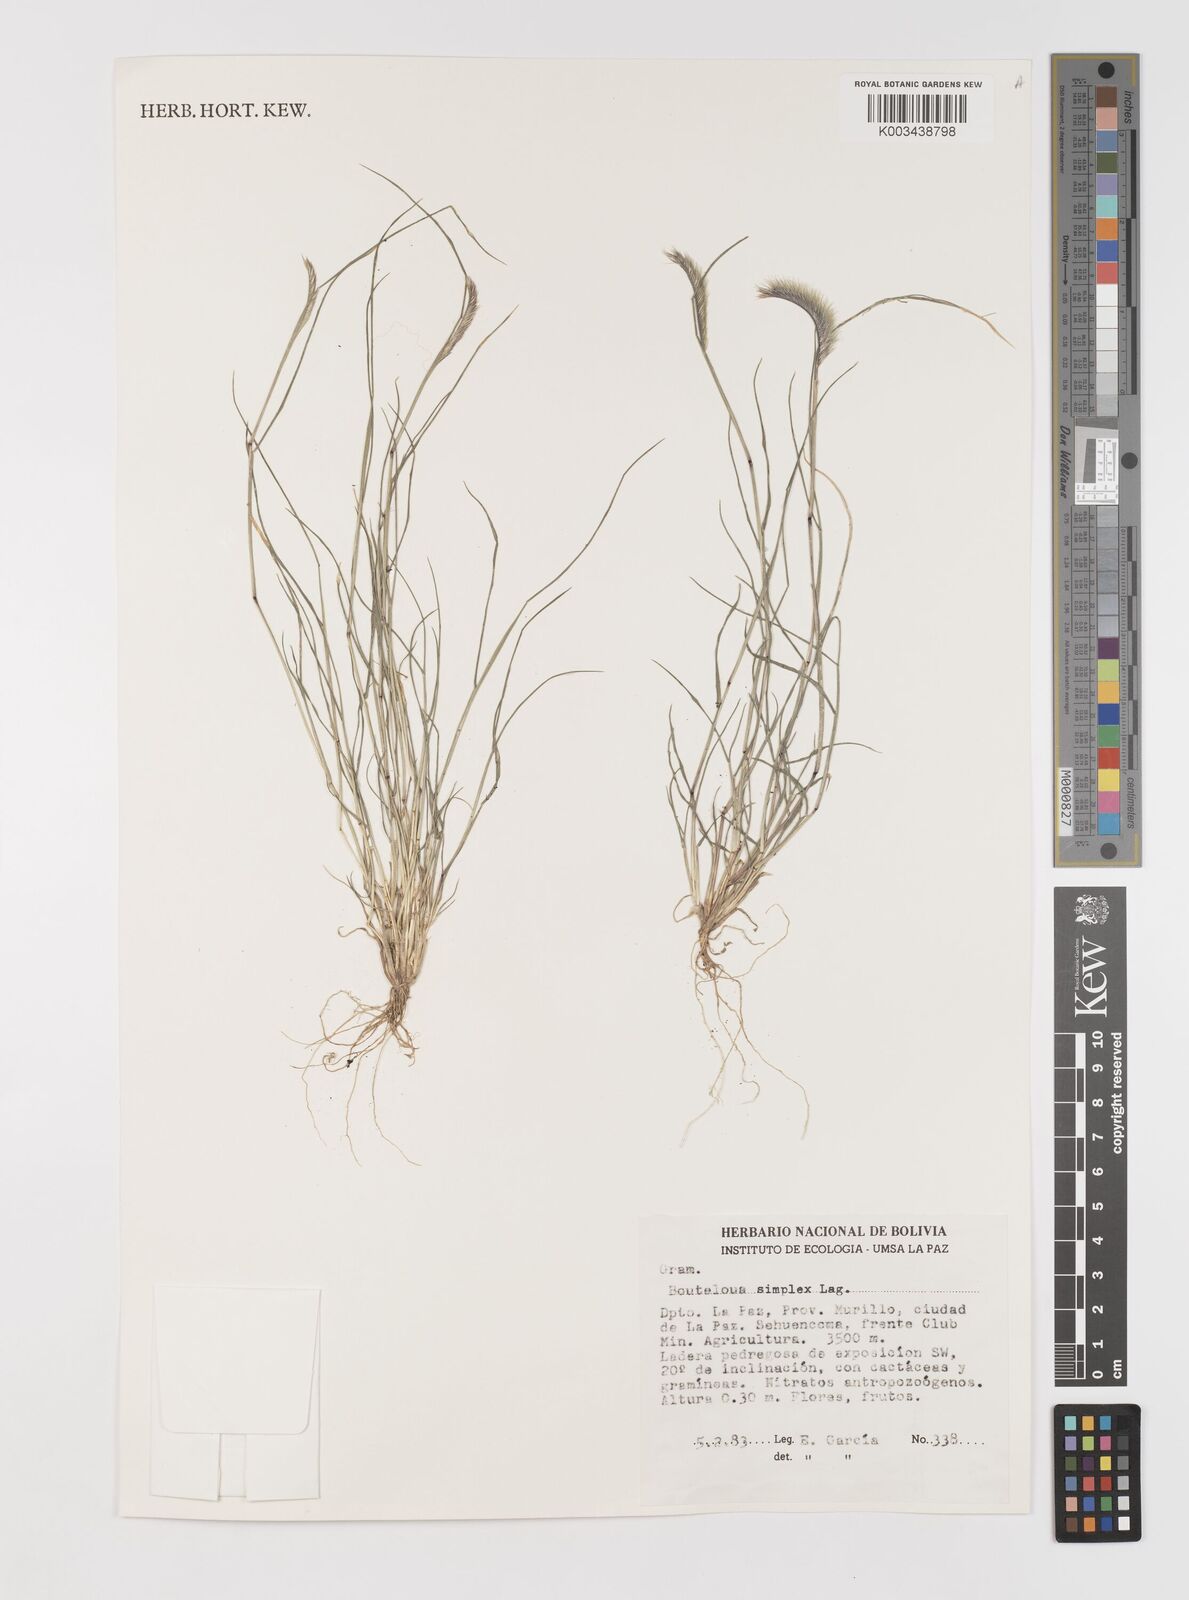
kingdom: Plantae
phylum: Tracheophyta
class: Liliopsida
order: Poales
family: Poaceae
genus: Bouteloua
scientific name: Bouteloua simplex
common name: Mat grama
